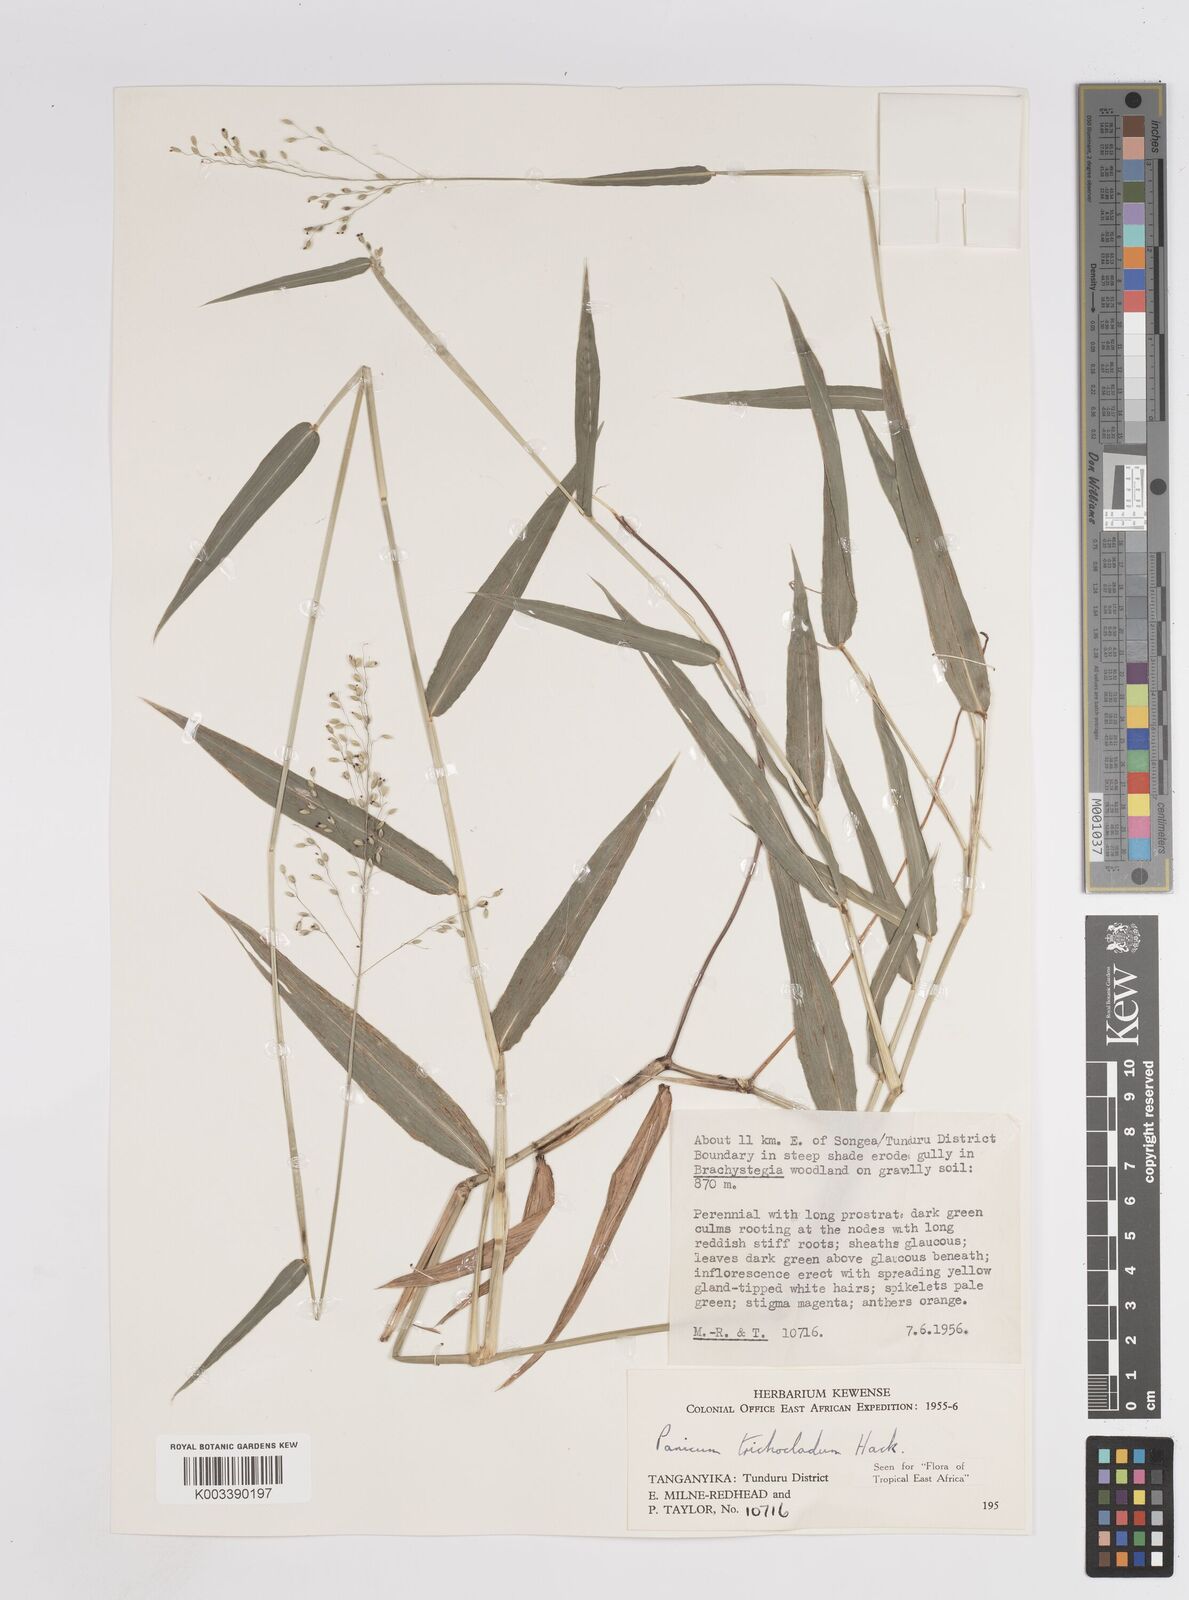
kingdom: Plantae
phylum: Tracheophyta
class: Liliopsida
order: Poales
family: Poaceae
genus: Panicum
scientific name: Panicum trichocladum
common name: Donkey grass
